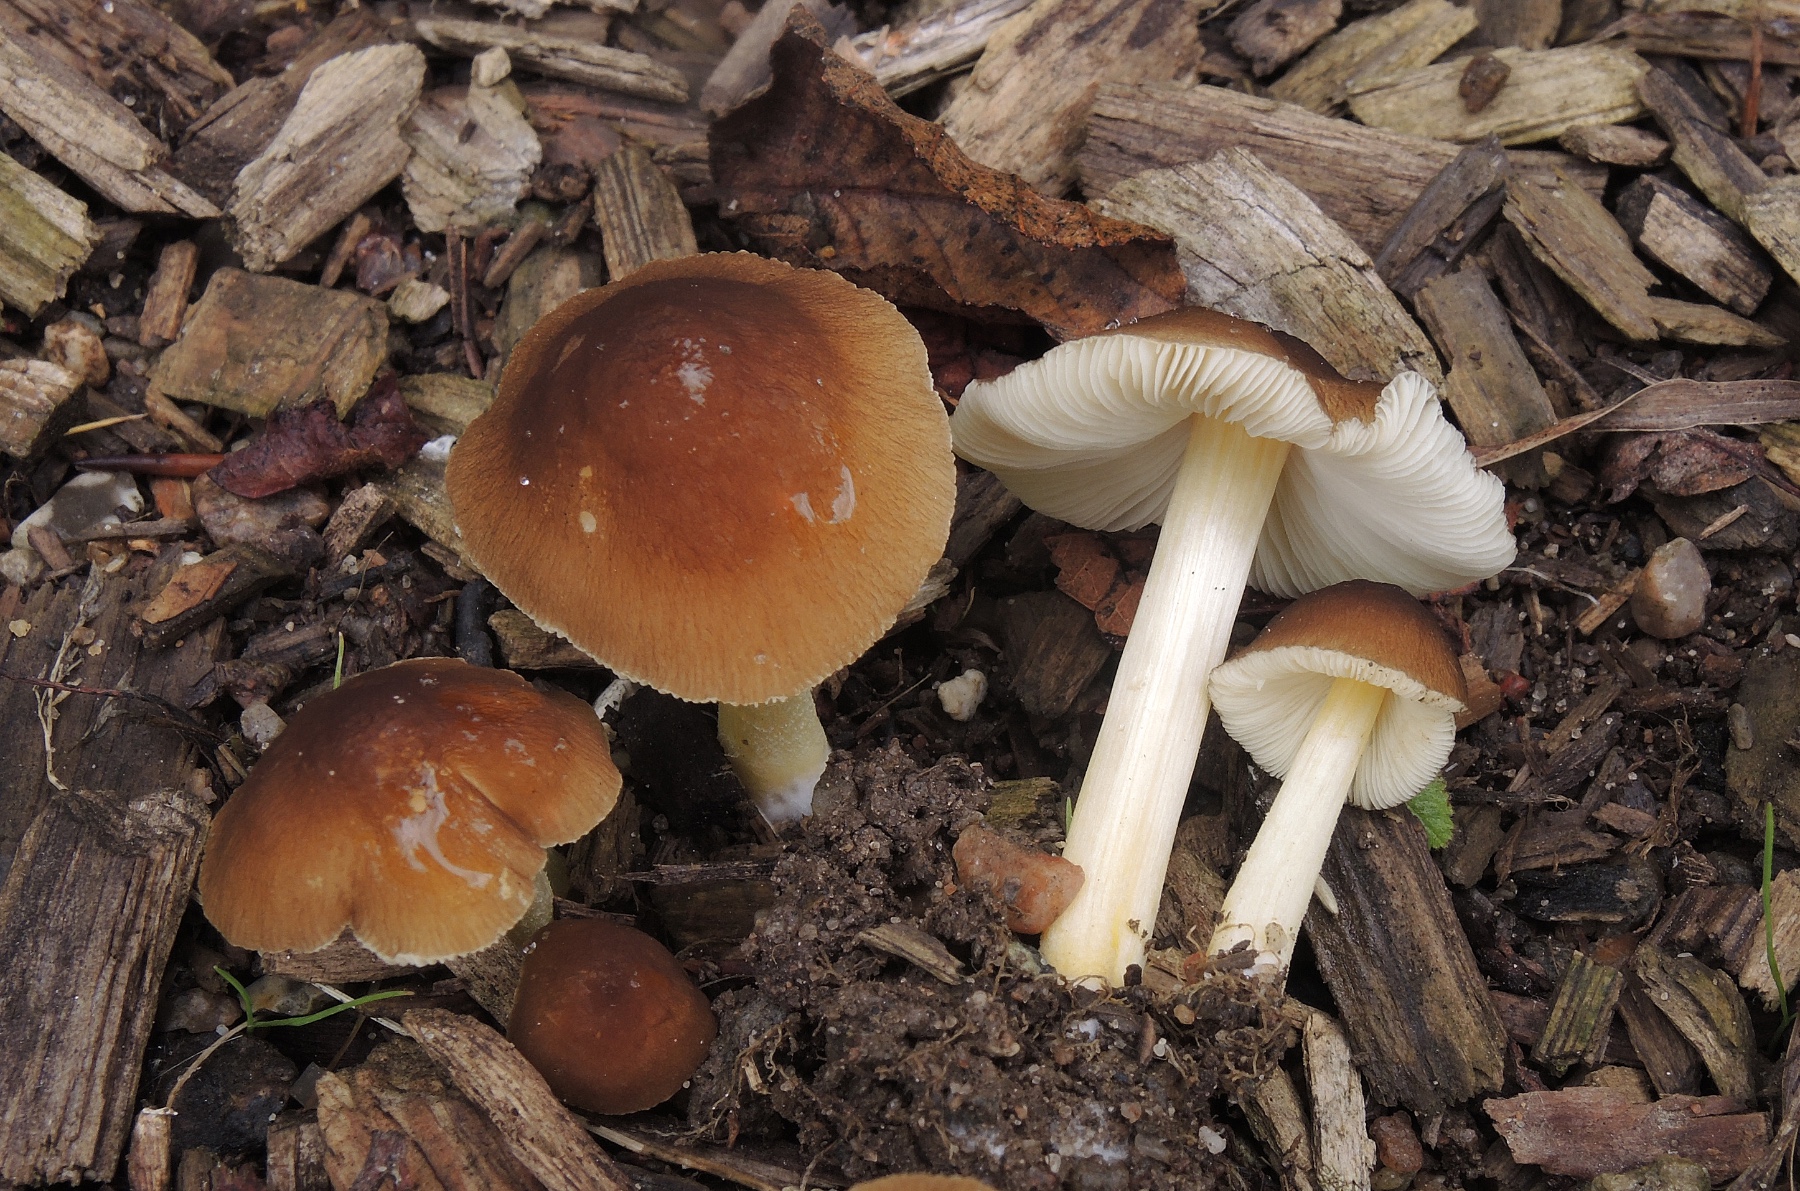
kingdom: Fungi
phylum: Basidiomycota
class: Agaricomycetes
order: Agaricales
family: Pluteaceae
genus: Pluteus
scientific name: Pluteus romellii
